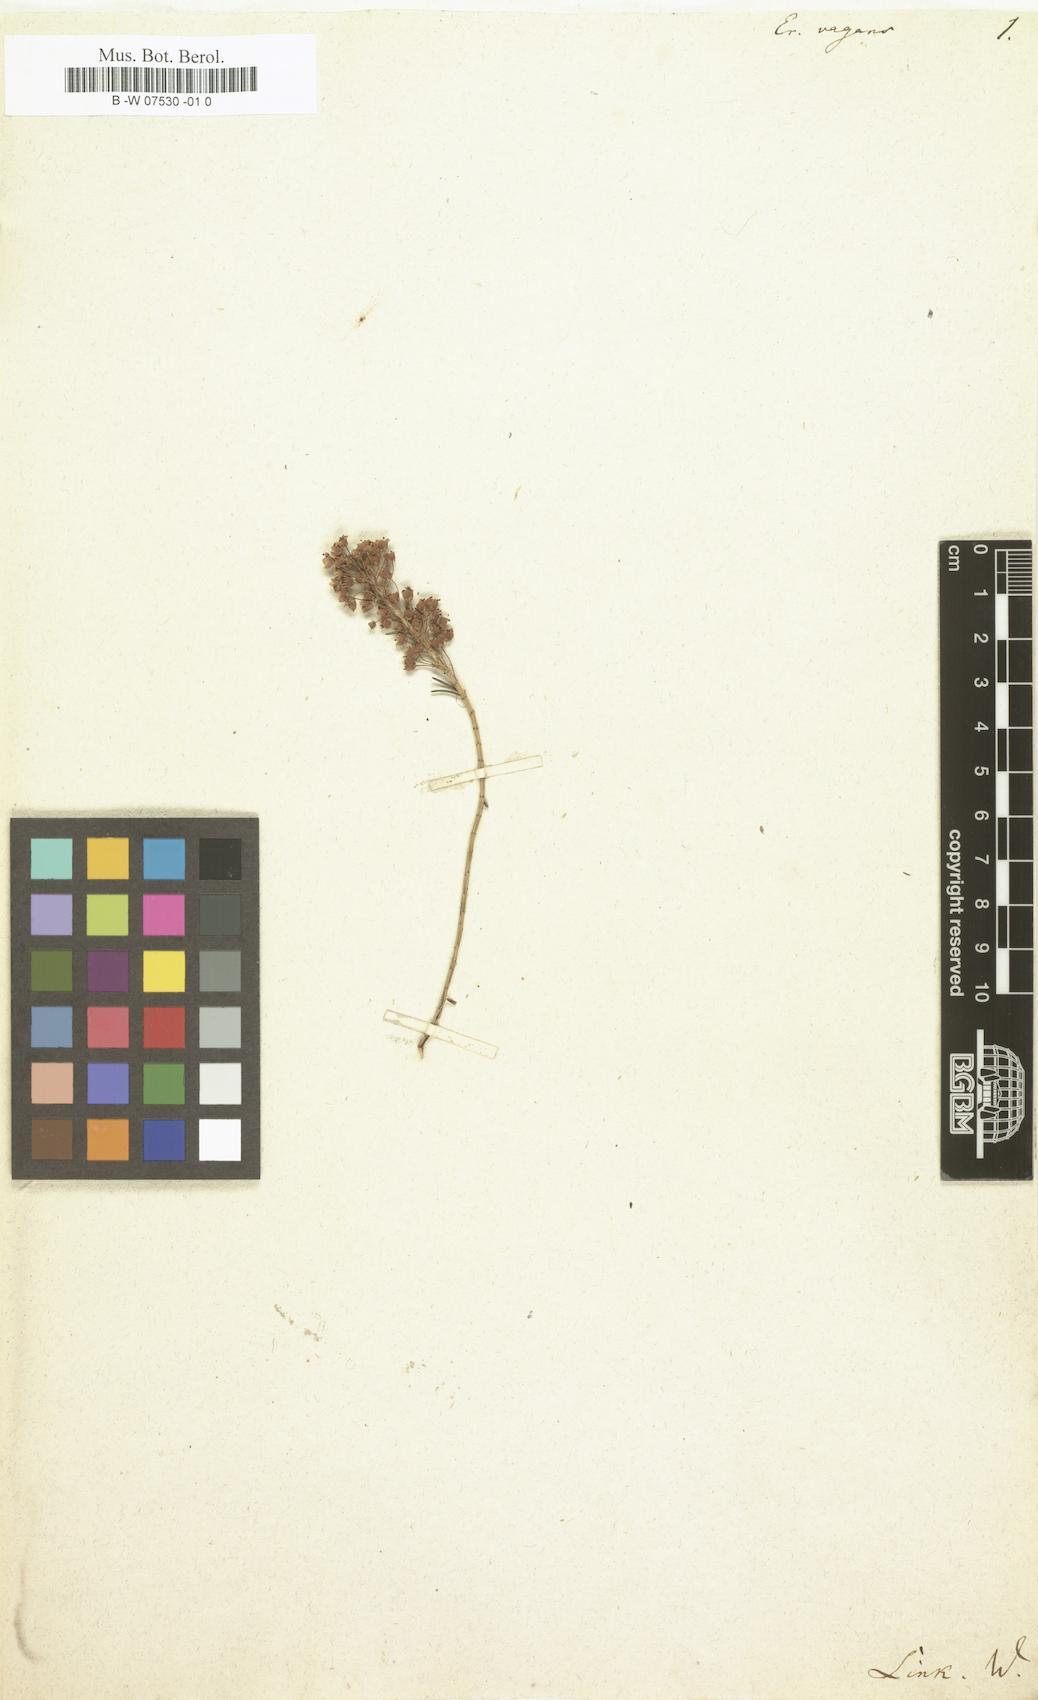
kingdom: Plantae
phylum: Tracheophyta
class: Magnoliopsida
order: Ericales
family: Ericaceae
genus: Erica
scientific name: Erica vagans
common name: Cornish heath
